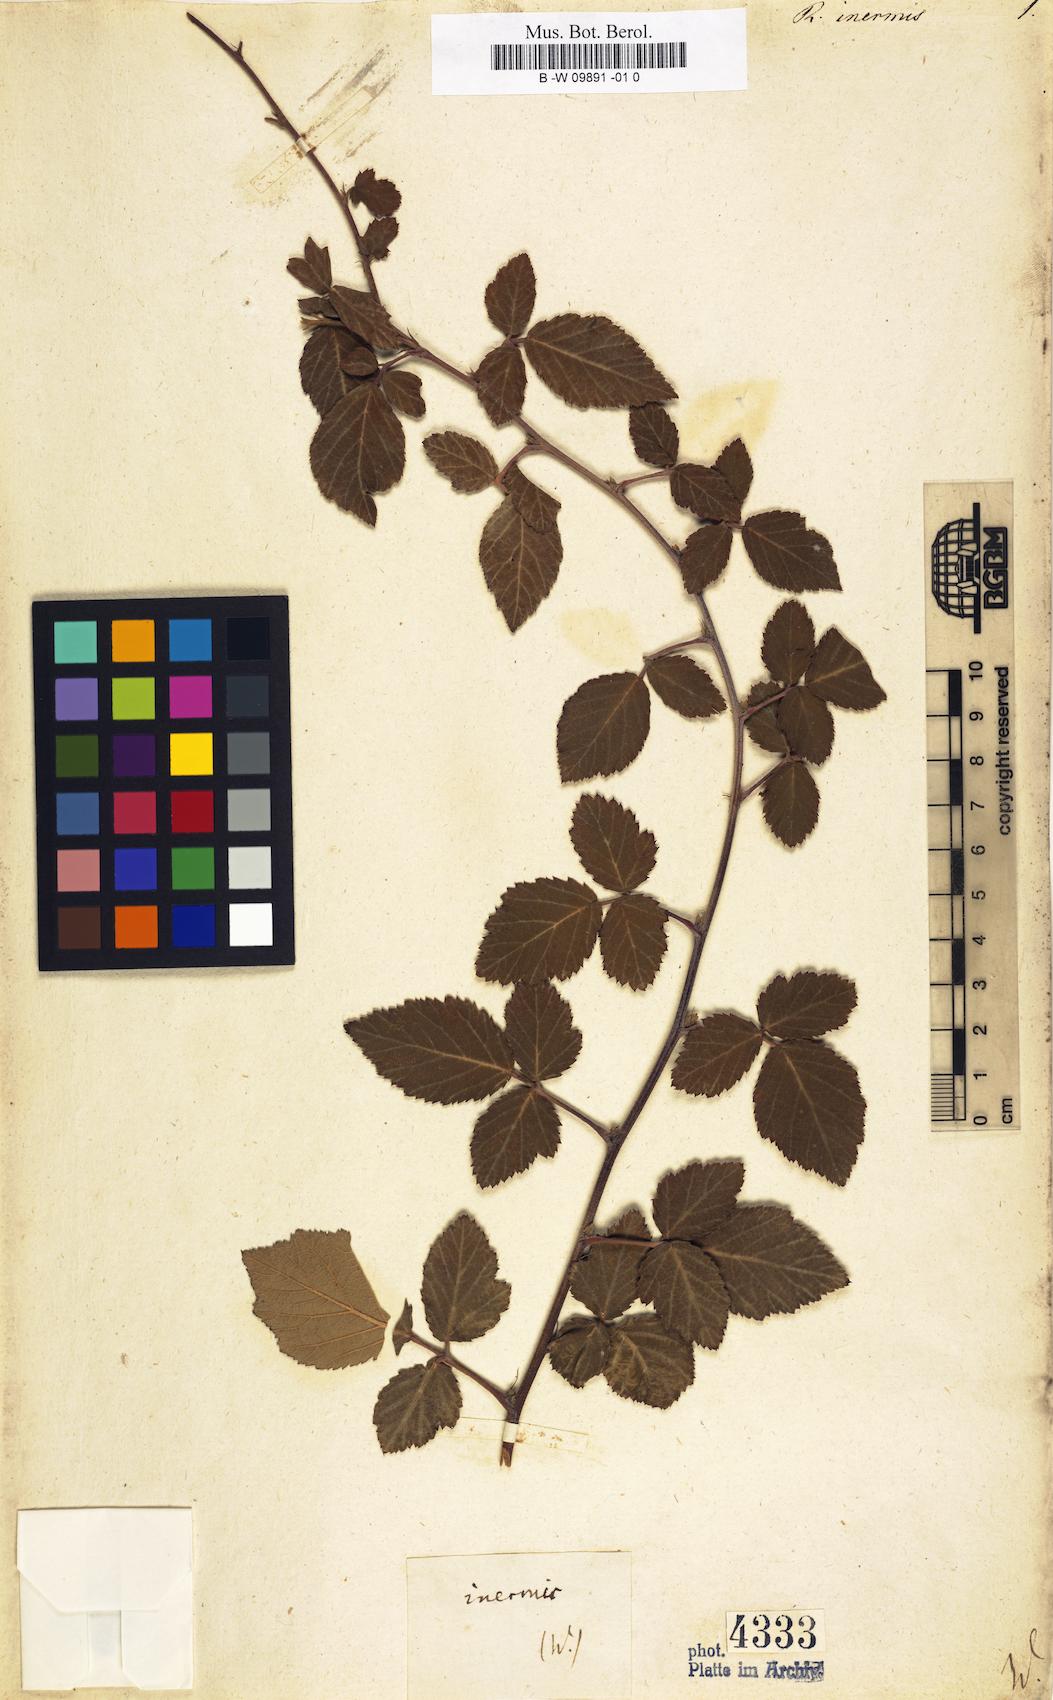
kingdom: Plantae
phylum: Tracheophyta
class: Magnoliopsida
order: Rosales
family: Rosaceae
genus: Rubus
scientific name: Rubus ulmifolius
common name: Elmleaf blackberry
